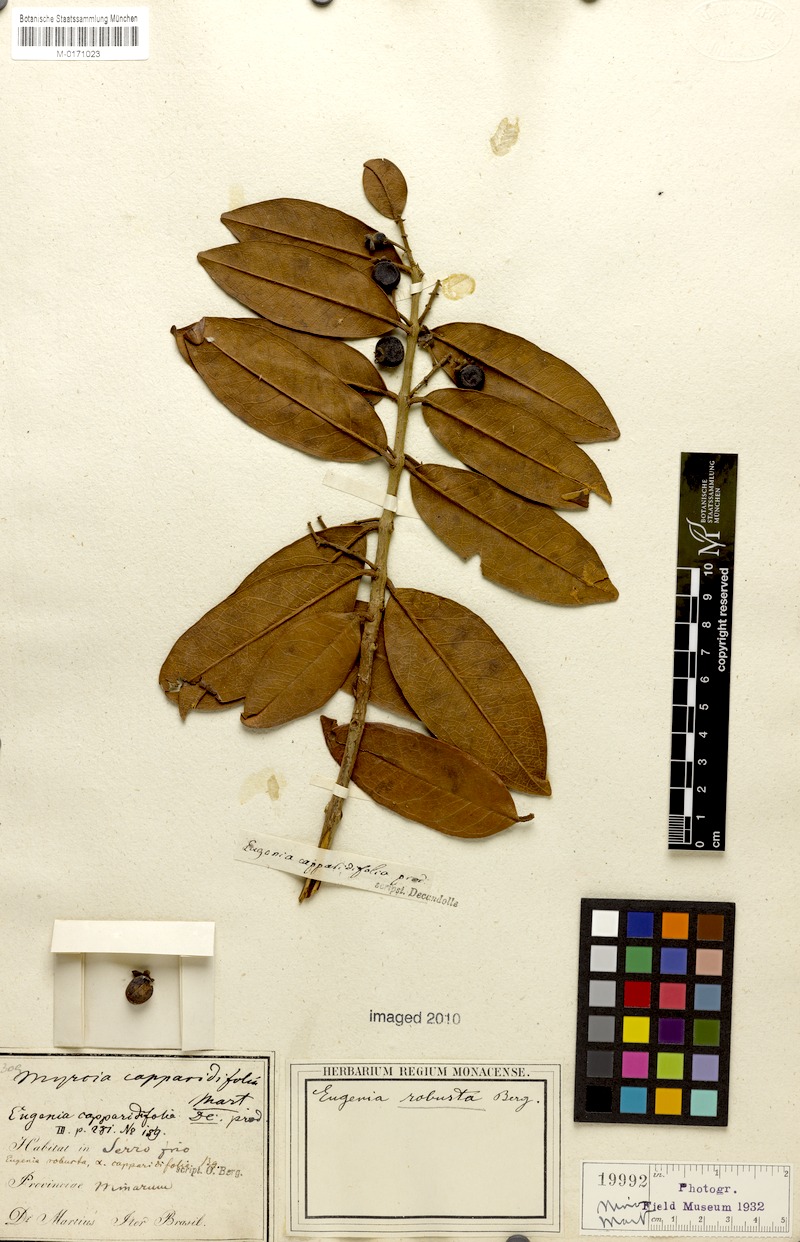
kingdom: Plantae
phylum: Tracheophyta
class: Magnoliopsida
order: Myrtales
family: Myrtaceae
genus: Eugenia
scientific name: Eugenia capparidifolia
